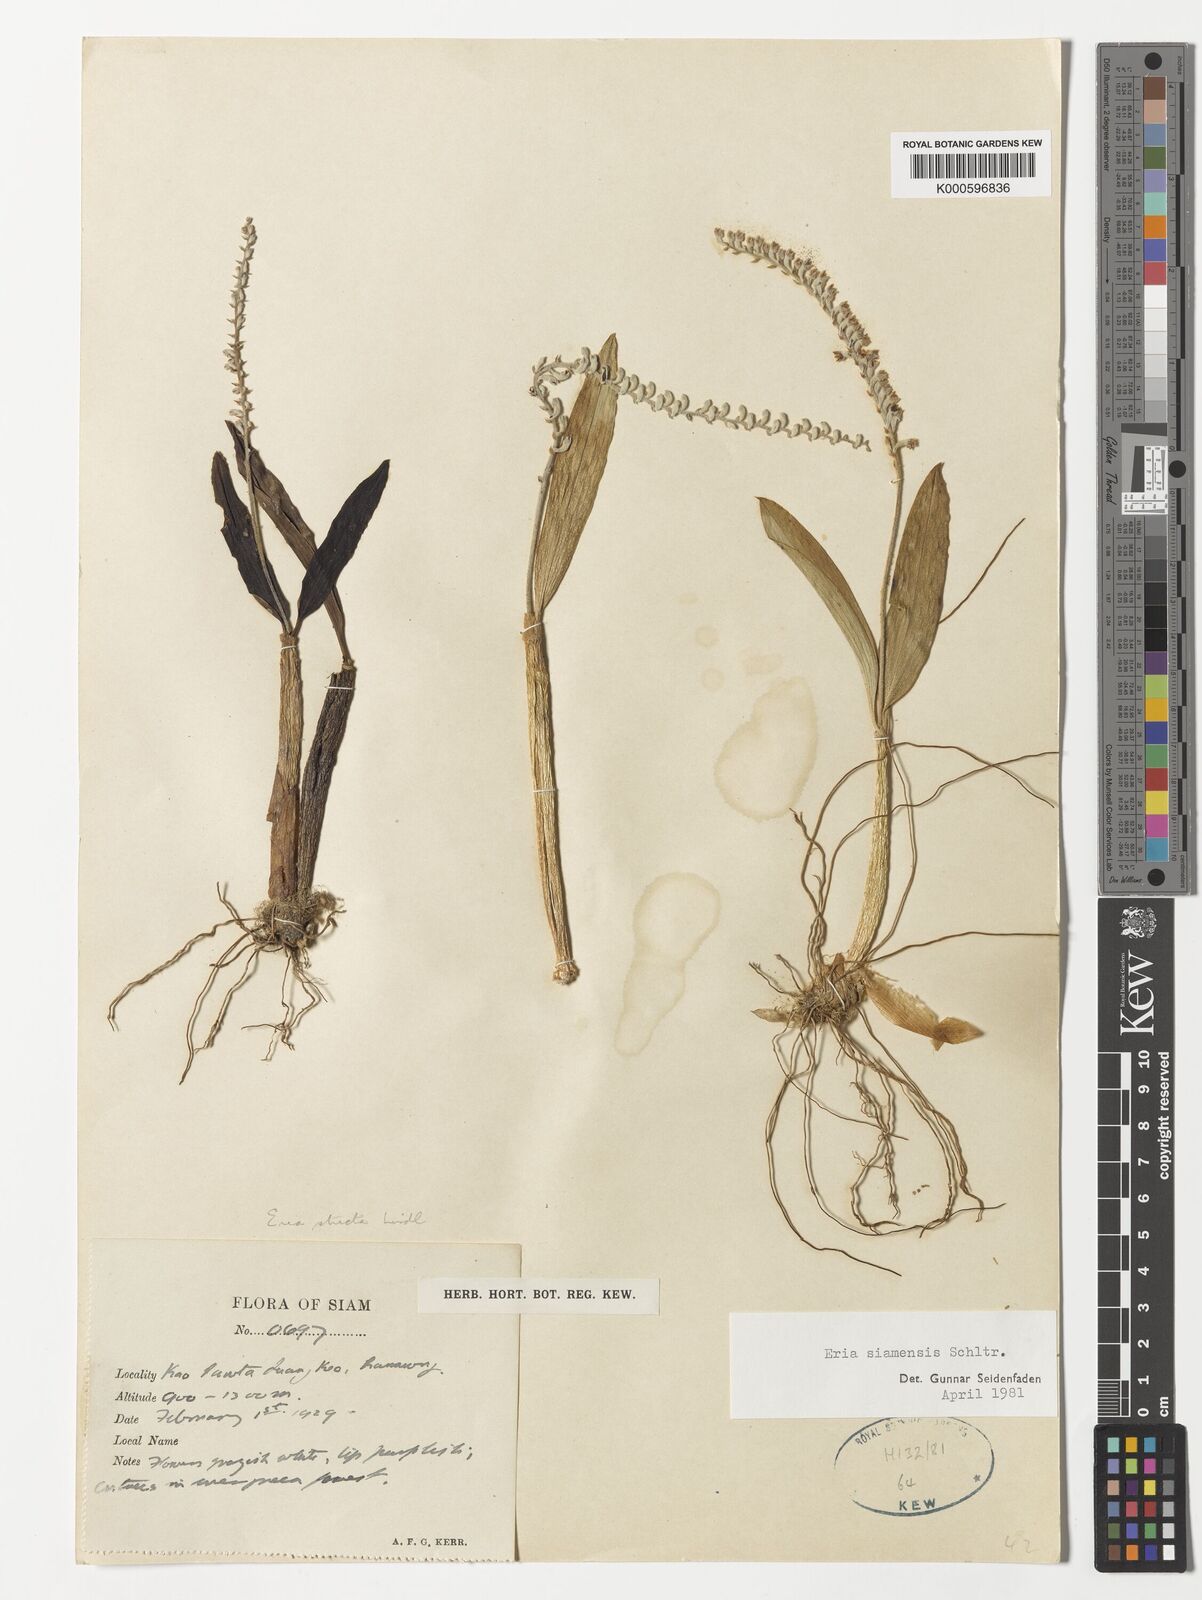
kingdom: Plantae
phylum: Tracheophyta
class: Liliopsida
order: Asparagales
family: Orchidaceae
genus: Cryptochilus
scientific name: Cryptochilus siamensis
